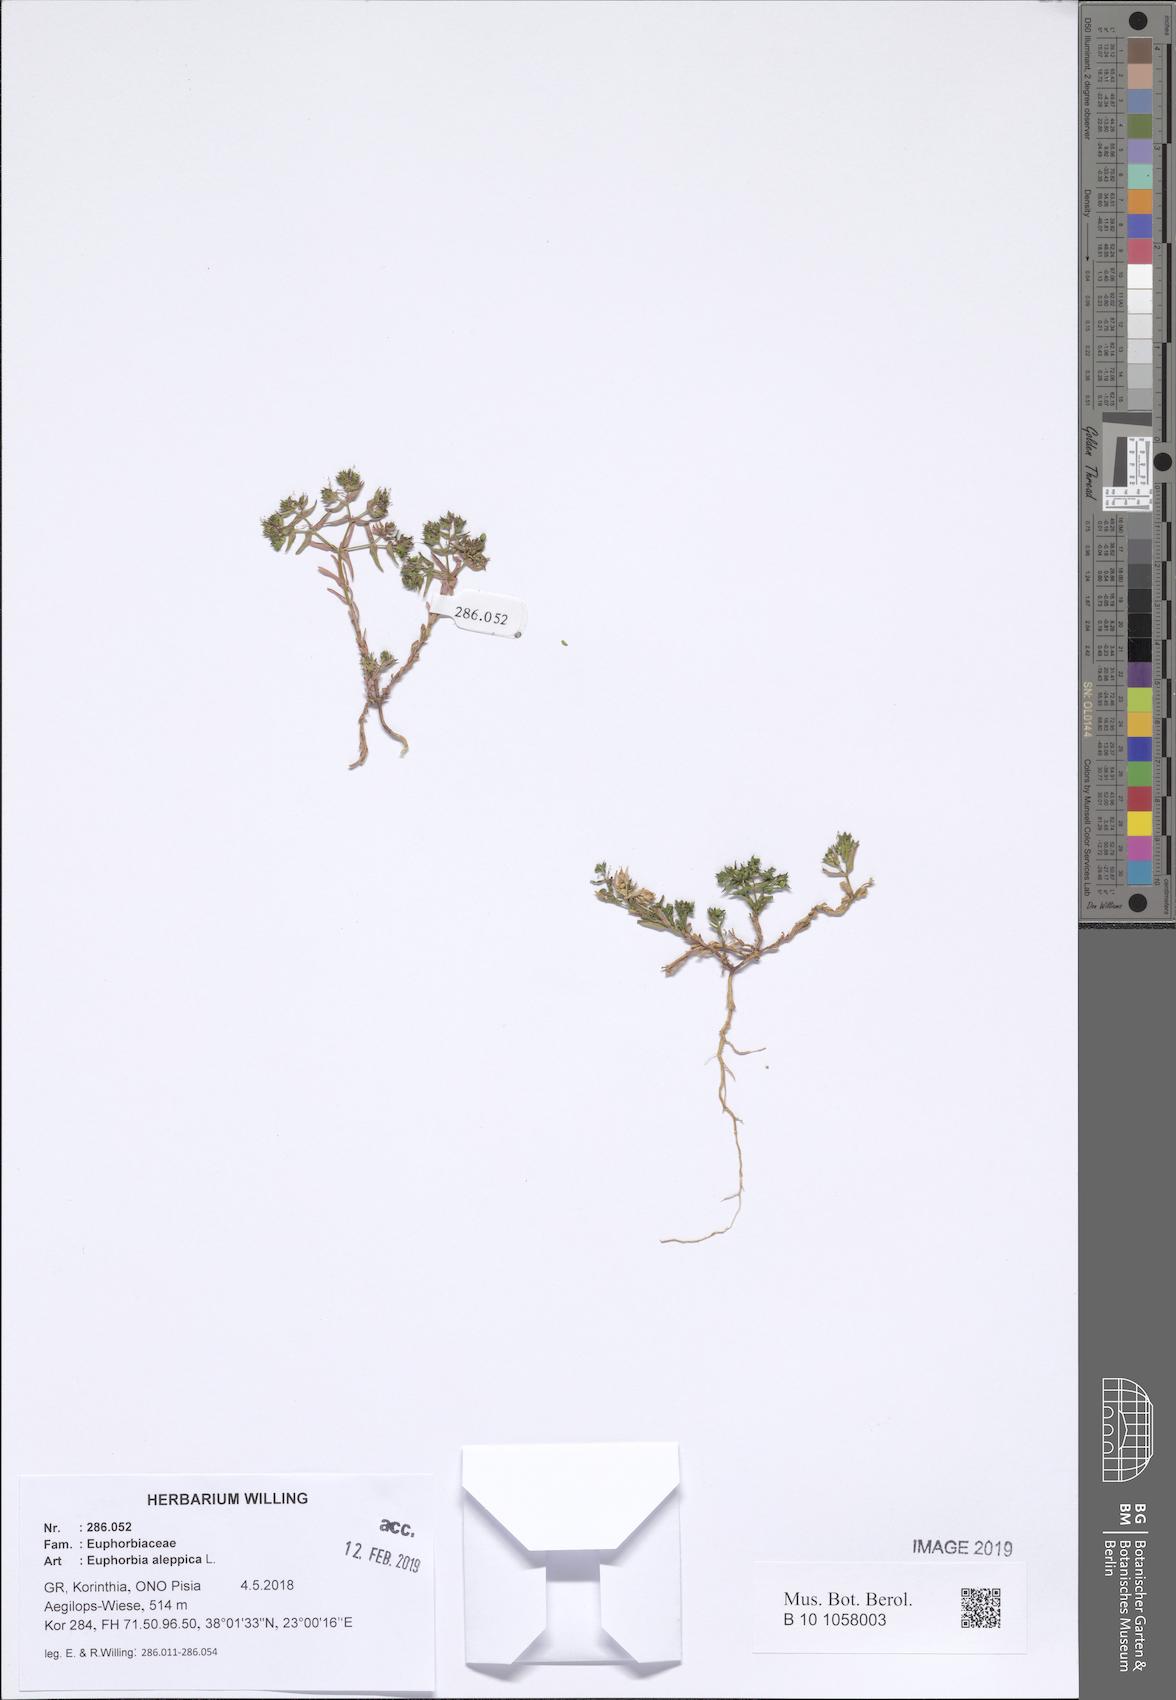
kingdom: Plantae
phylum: Tracheophyta
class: Magnoliopsida
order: Malpighiales
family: Euphorbiaceae
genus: Euphorbia
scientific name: Euphorbia exigua
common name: Dwarf spurge
